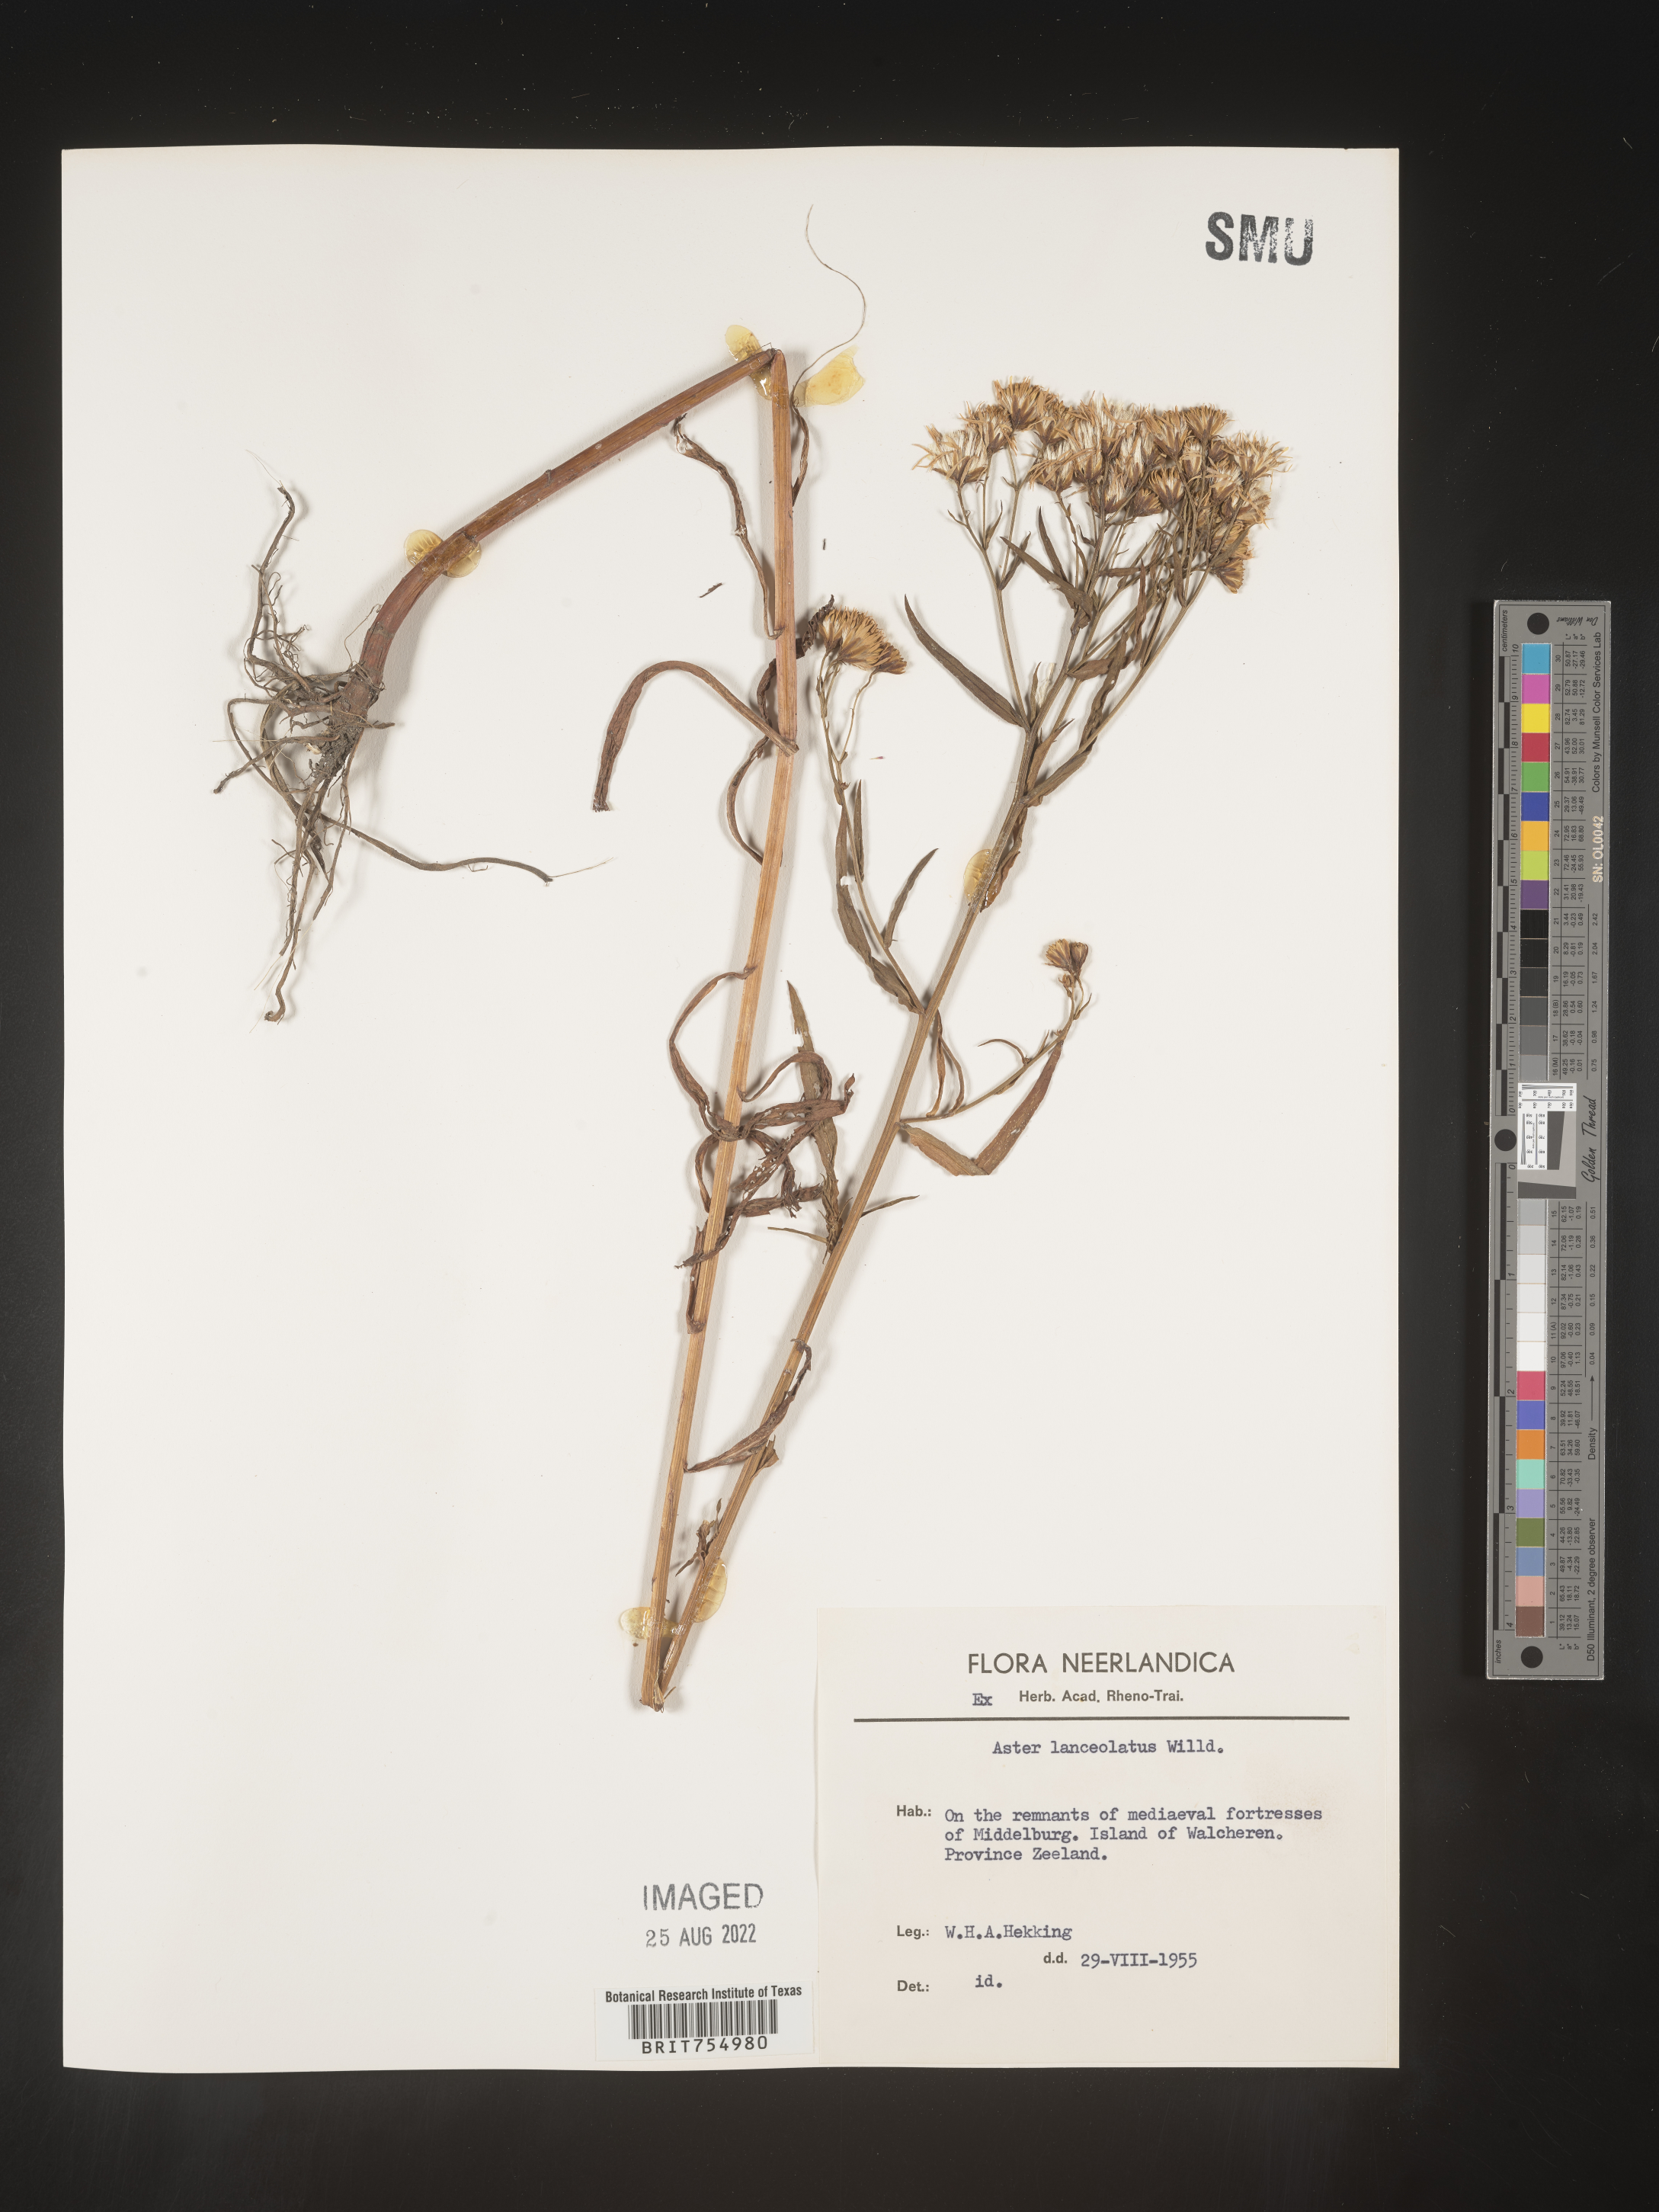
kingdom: Plantae
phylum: Tracheophyta
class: Magnoliopsida
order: Asterales
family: Asteraceae
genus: Symphyotrichum
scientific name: Symphyotrichum
